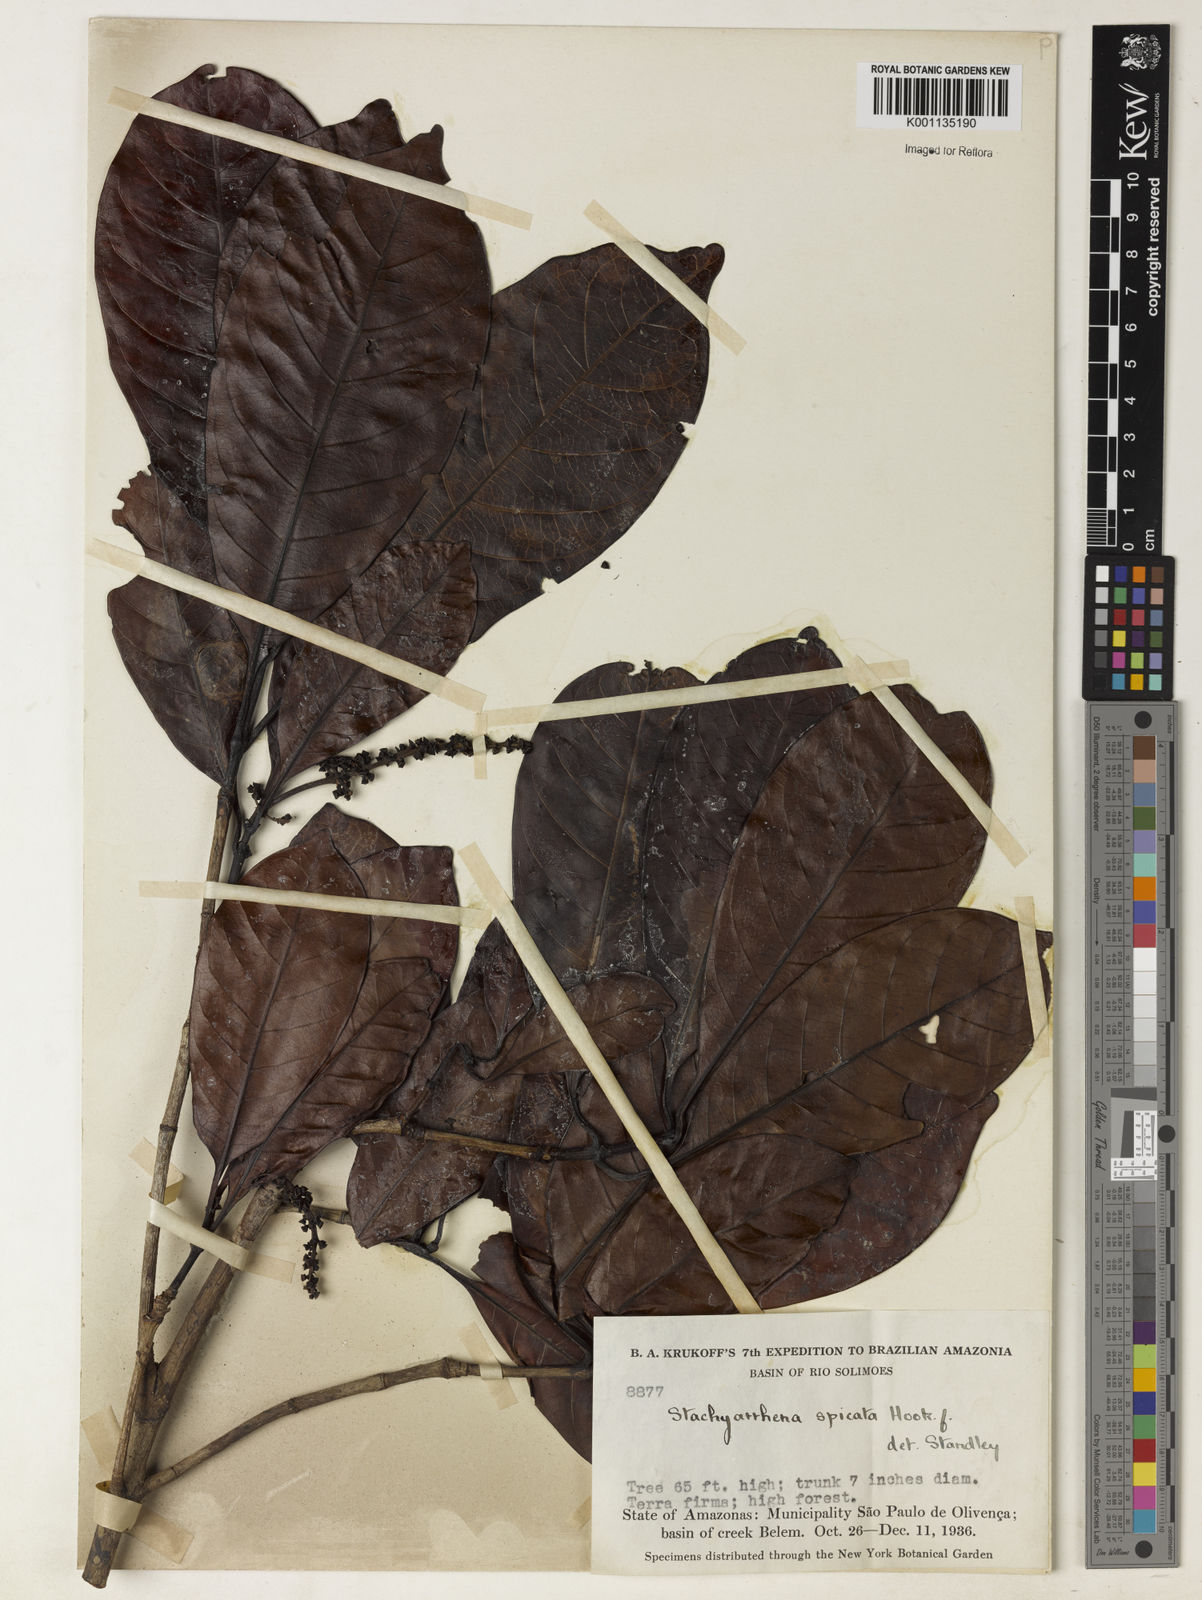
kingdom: Plantae
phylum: Tracheophyta
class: Magnoliopsida
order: Gentianales
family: Rubiaceae
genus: Stachyarrhena
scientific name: Stachyarrhena spicata
